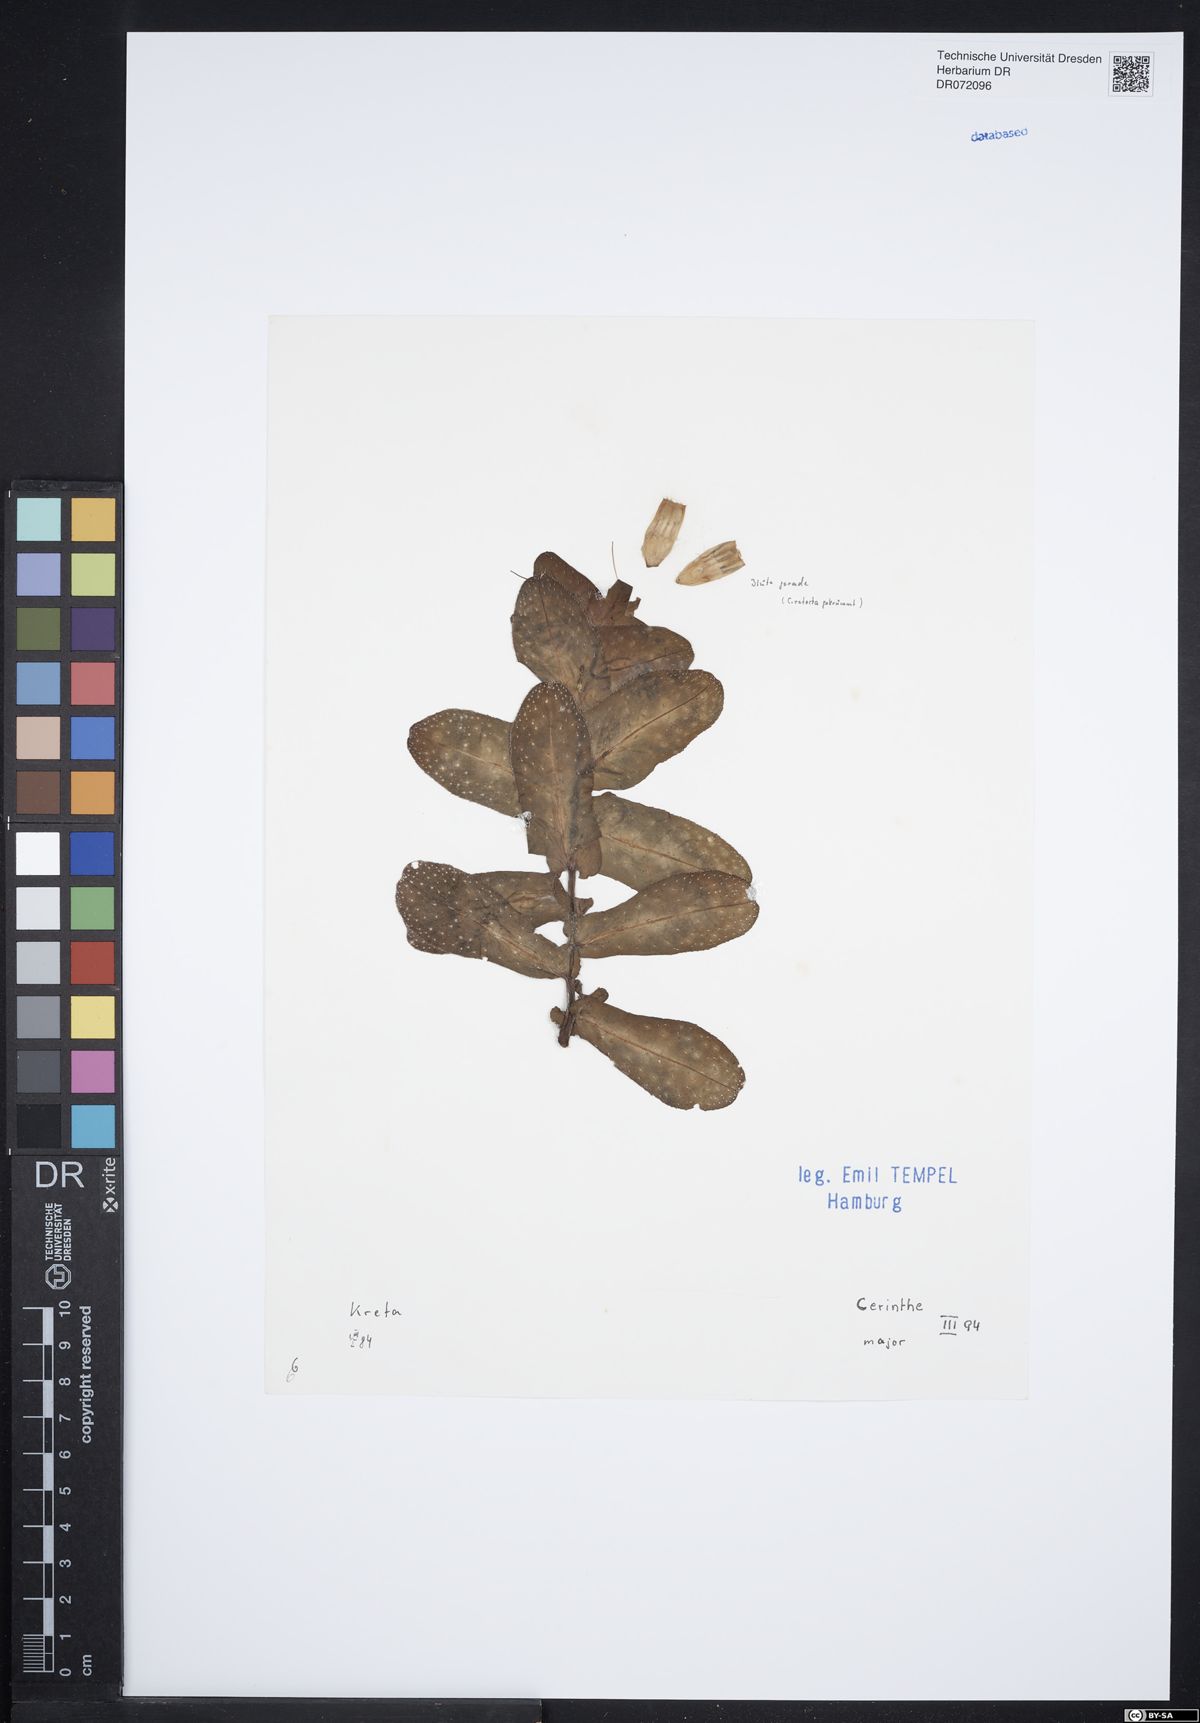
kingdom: Plantae
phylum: Tracheophyta
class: Magnoliopsida
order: Boraginales
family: Boraginaceae
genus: Cerinthe
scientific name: Cerinthe major
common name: Greater honeywort
